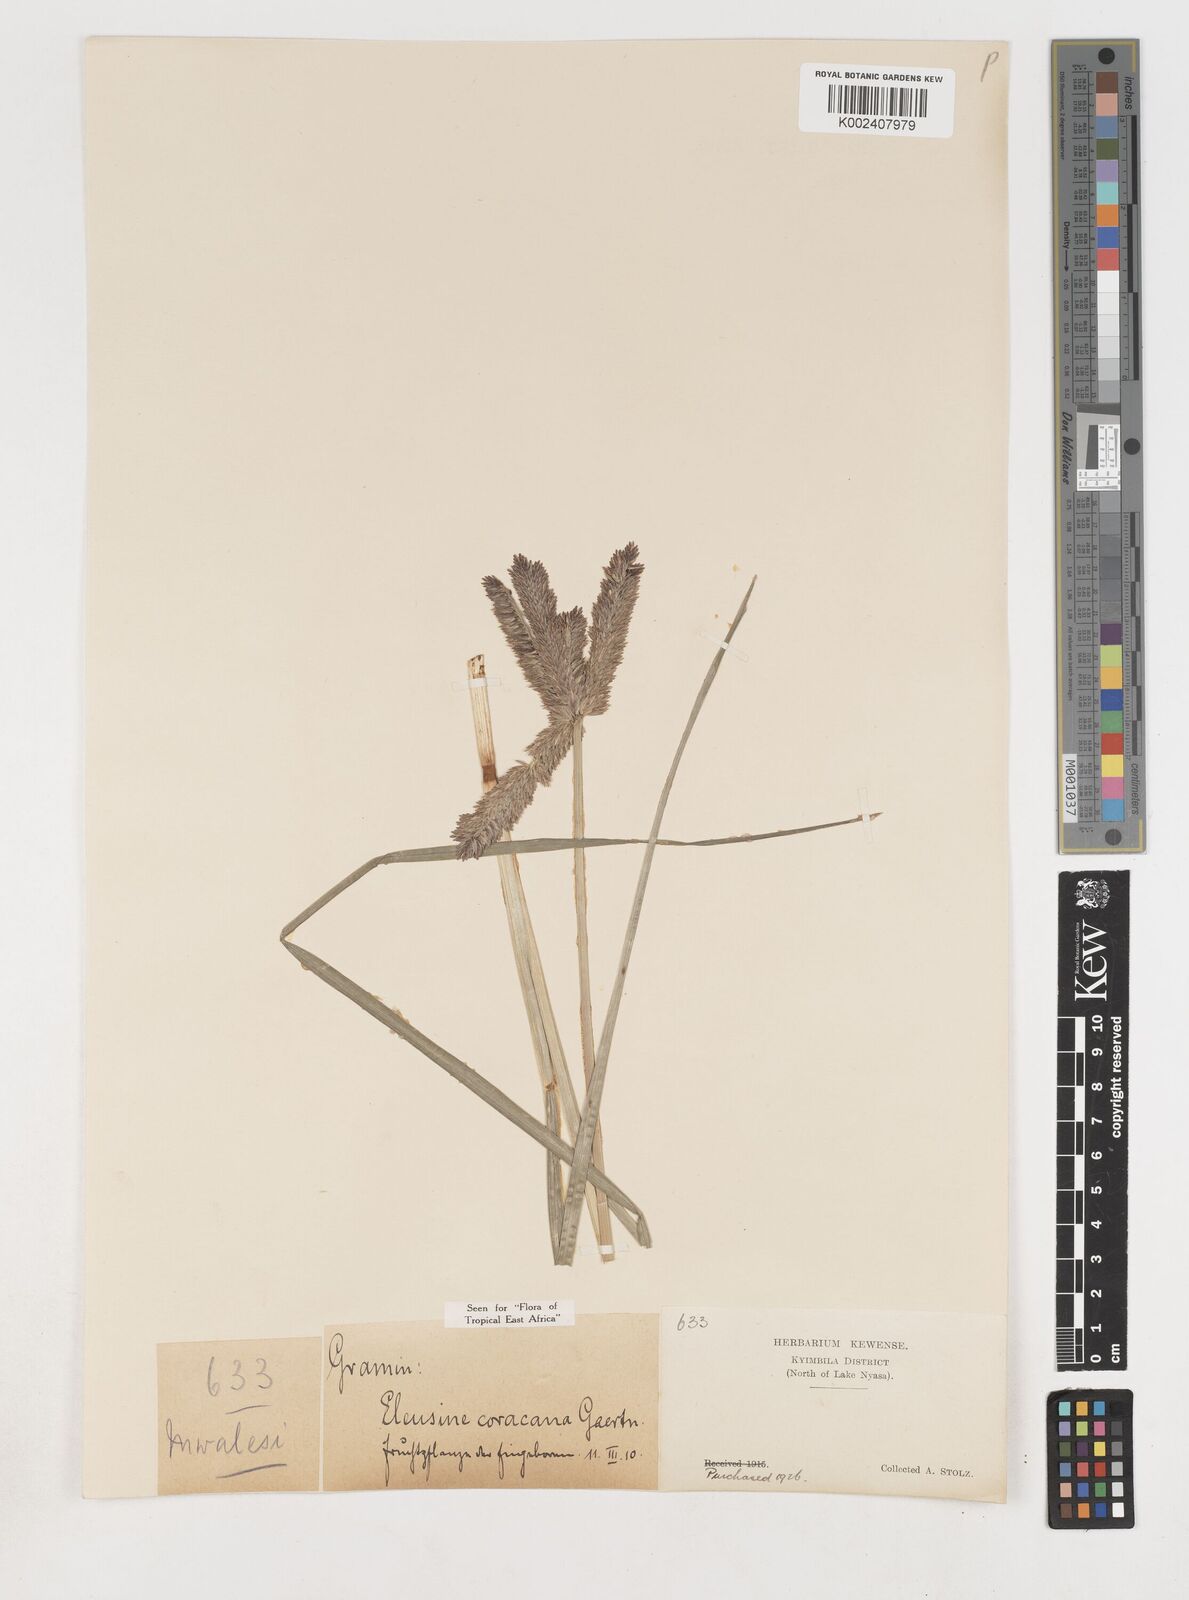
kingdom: Plantae
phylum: Tracheophyta
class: Liliopsida
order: Poales
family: Poaceae
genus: Eleusine
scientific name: Eleusine coracana
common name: Finger millet
